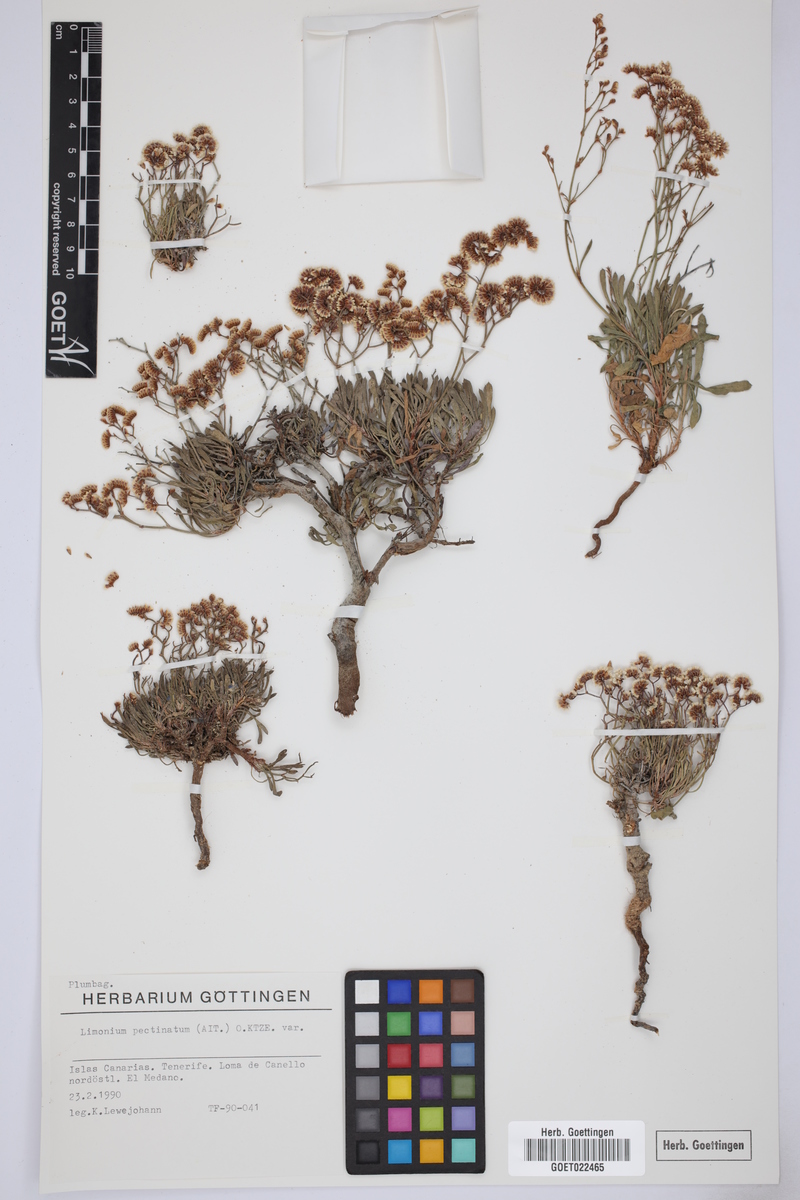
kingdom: Plantae
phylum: Tracheophyta
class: Magnoliopsida
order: Caryophyllales
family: Plumbaginaceae
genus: Limonium
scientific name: Limonium pectinatum
